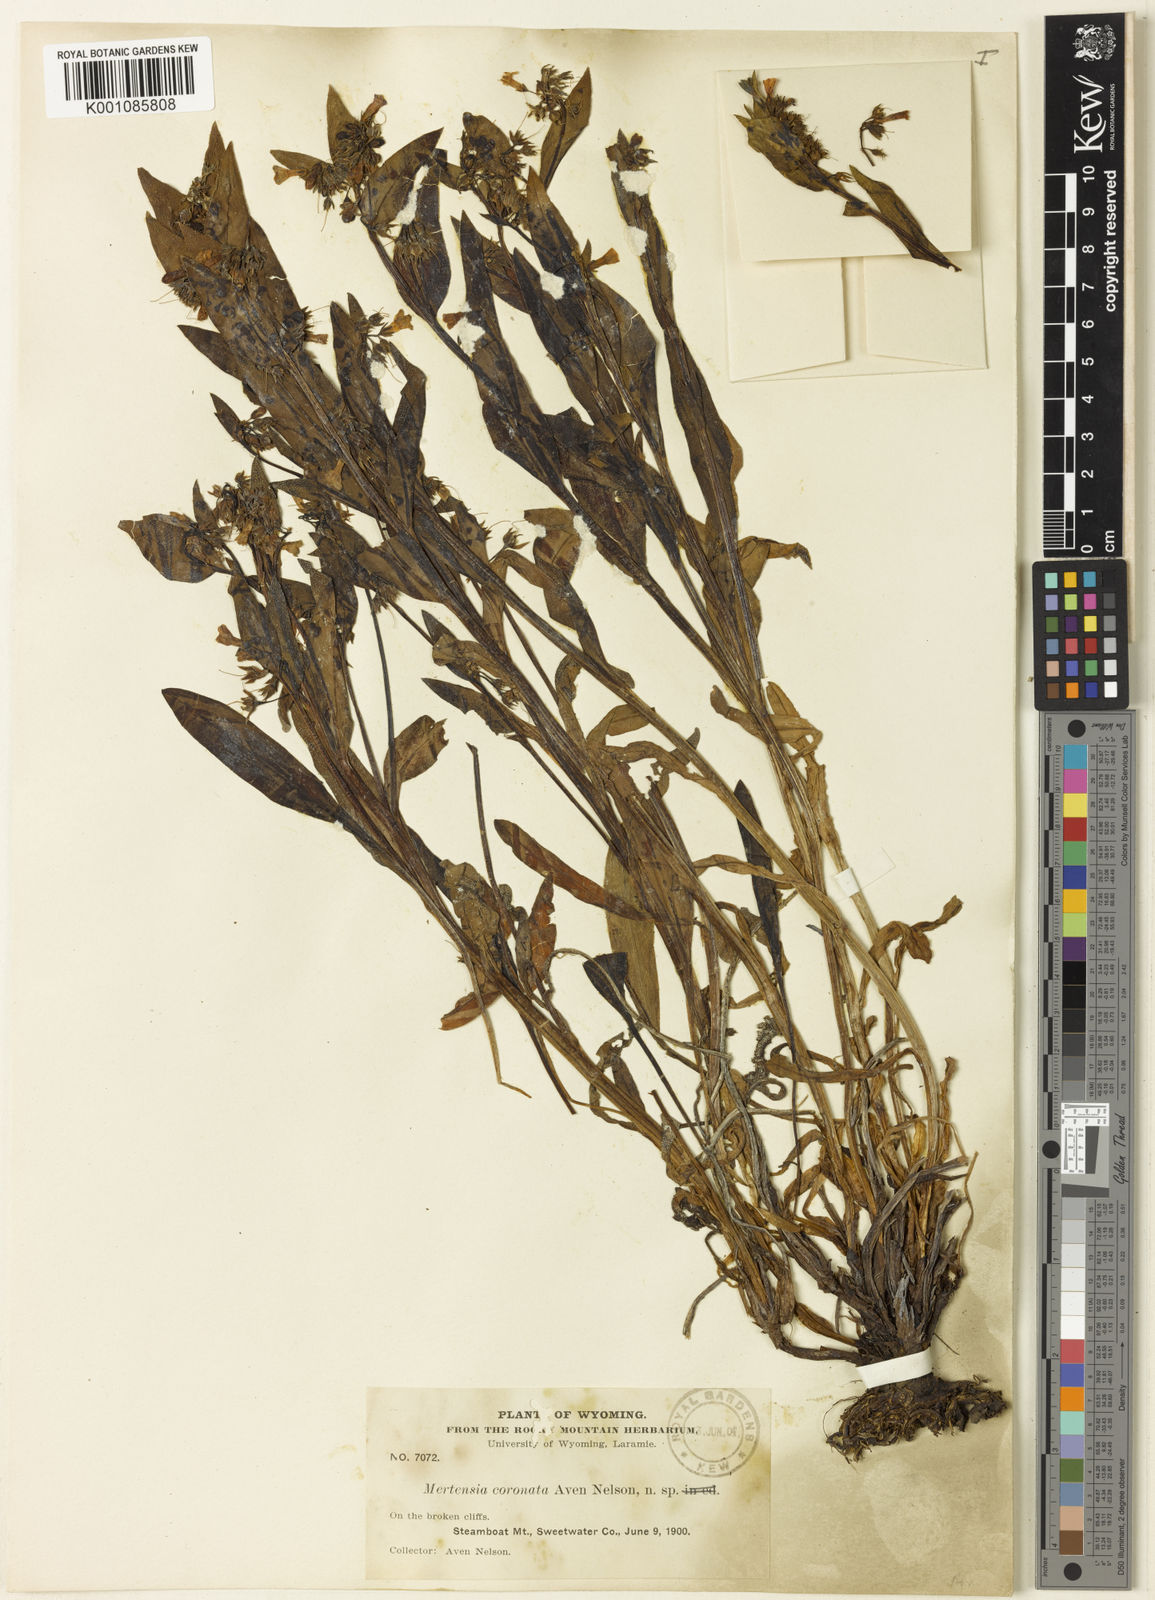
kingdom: Plantae
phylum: Tracheophyta
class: Magnoliopsida
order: Boraginales
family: Boraginaceae
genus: Mertensia
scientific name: Mertensia nevadensis
